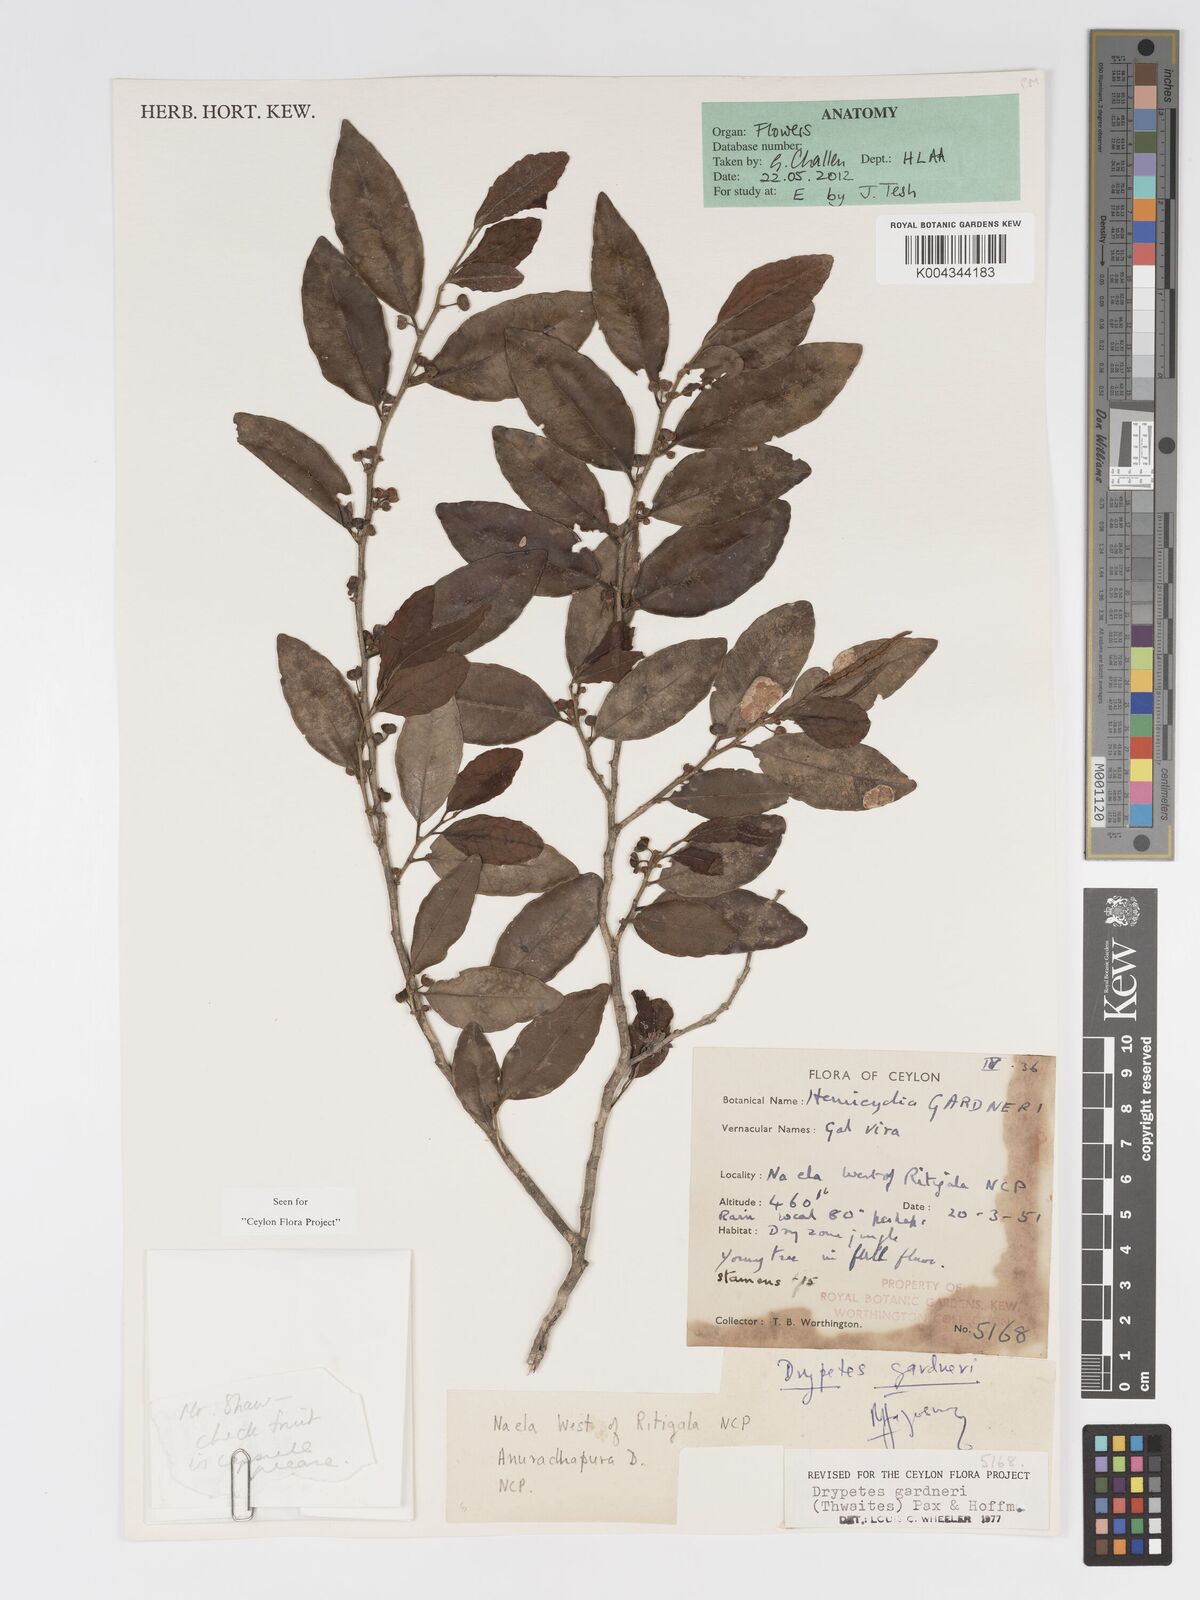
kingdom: Plantae
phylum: Tracheophyta
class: Magnoliopsida
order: Malpighiales
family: Putranjivaceae
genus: Drypetes
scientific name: Drypetes gardneri
